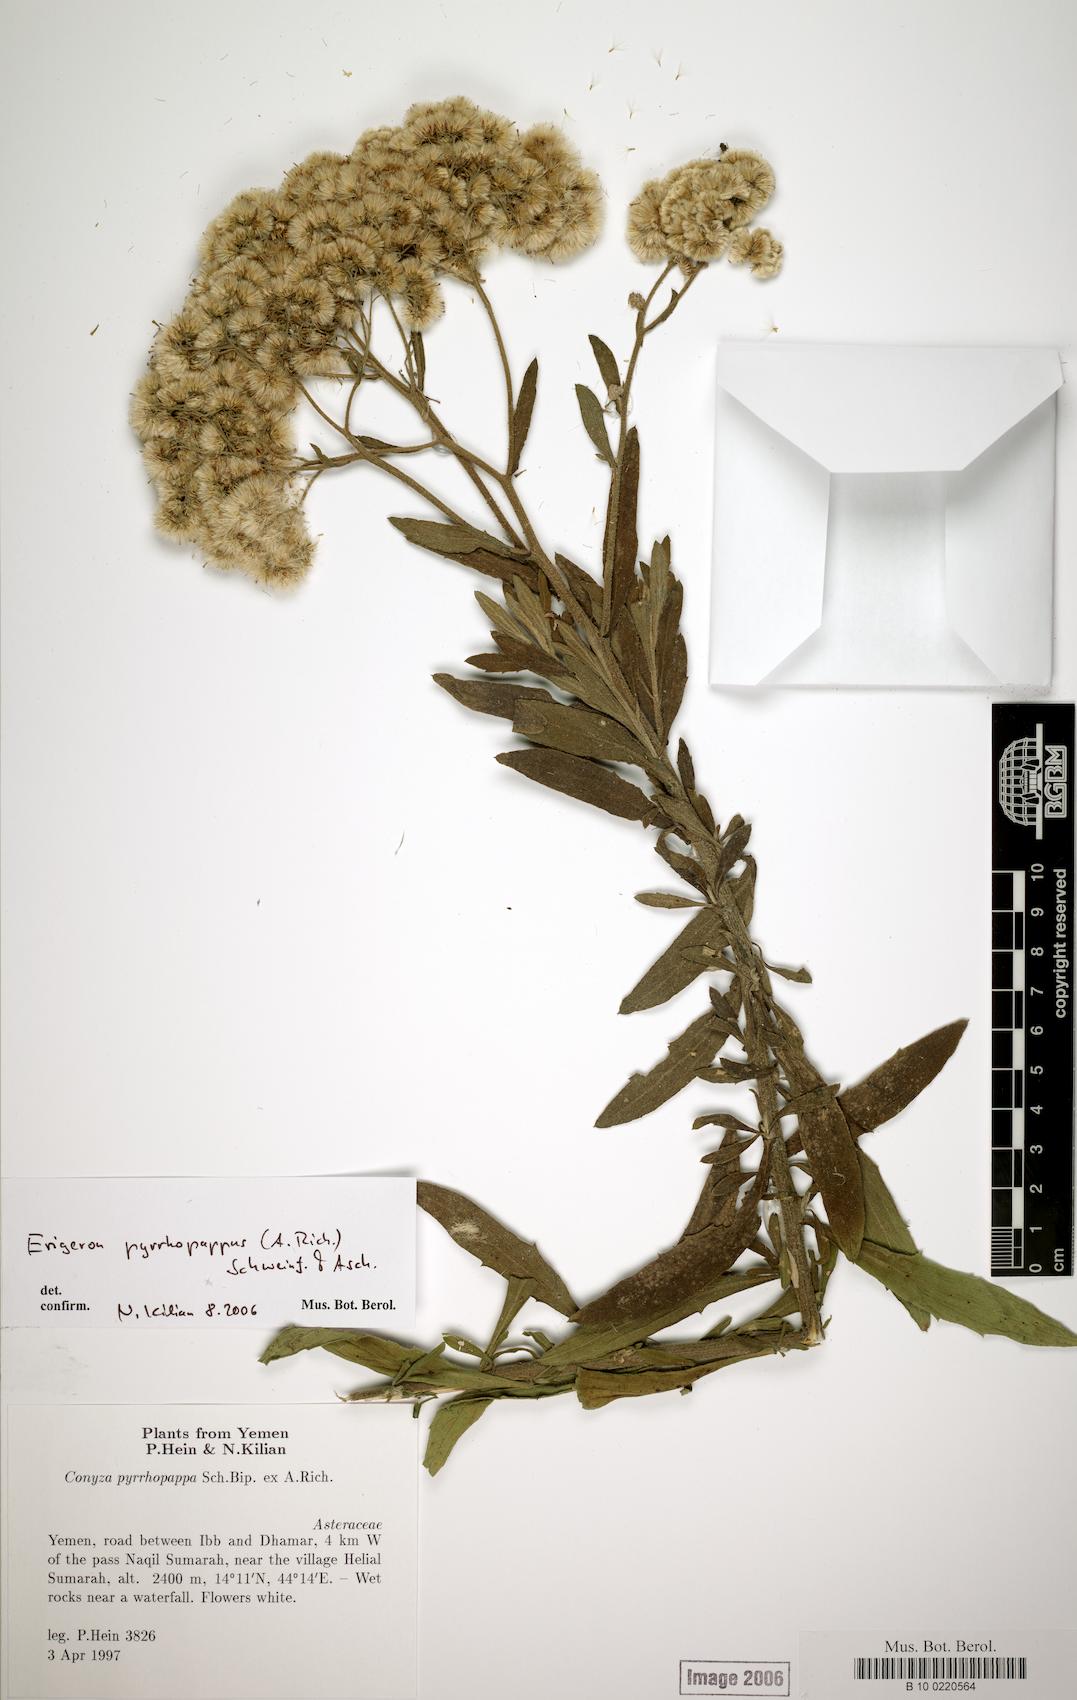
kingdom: Plantae
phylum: Tracheophyta
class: Magnoliopsida
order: Caryophyllales
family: Caryophyllaceae
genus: Stellaria
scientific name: Stellaria apetala
